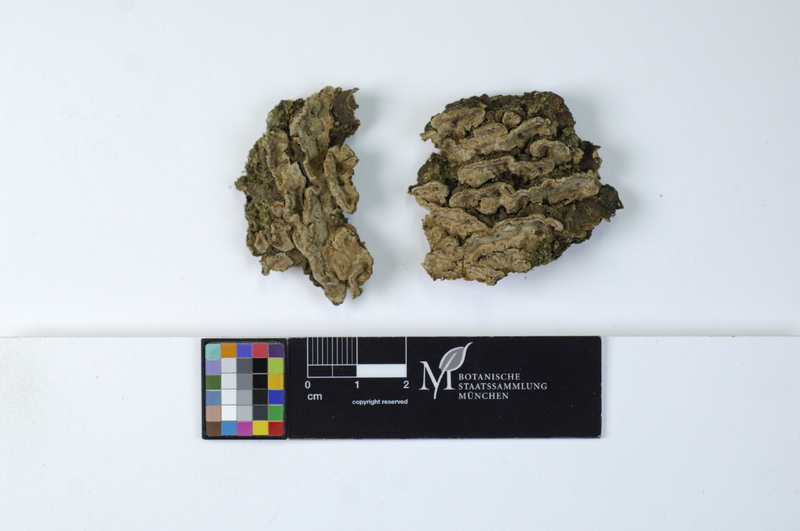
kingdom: Plantae
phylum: Tracheophyta
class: Pinopsida
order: Pinales
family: Pinaceae
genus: Picea
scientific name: Picea
